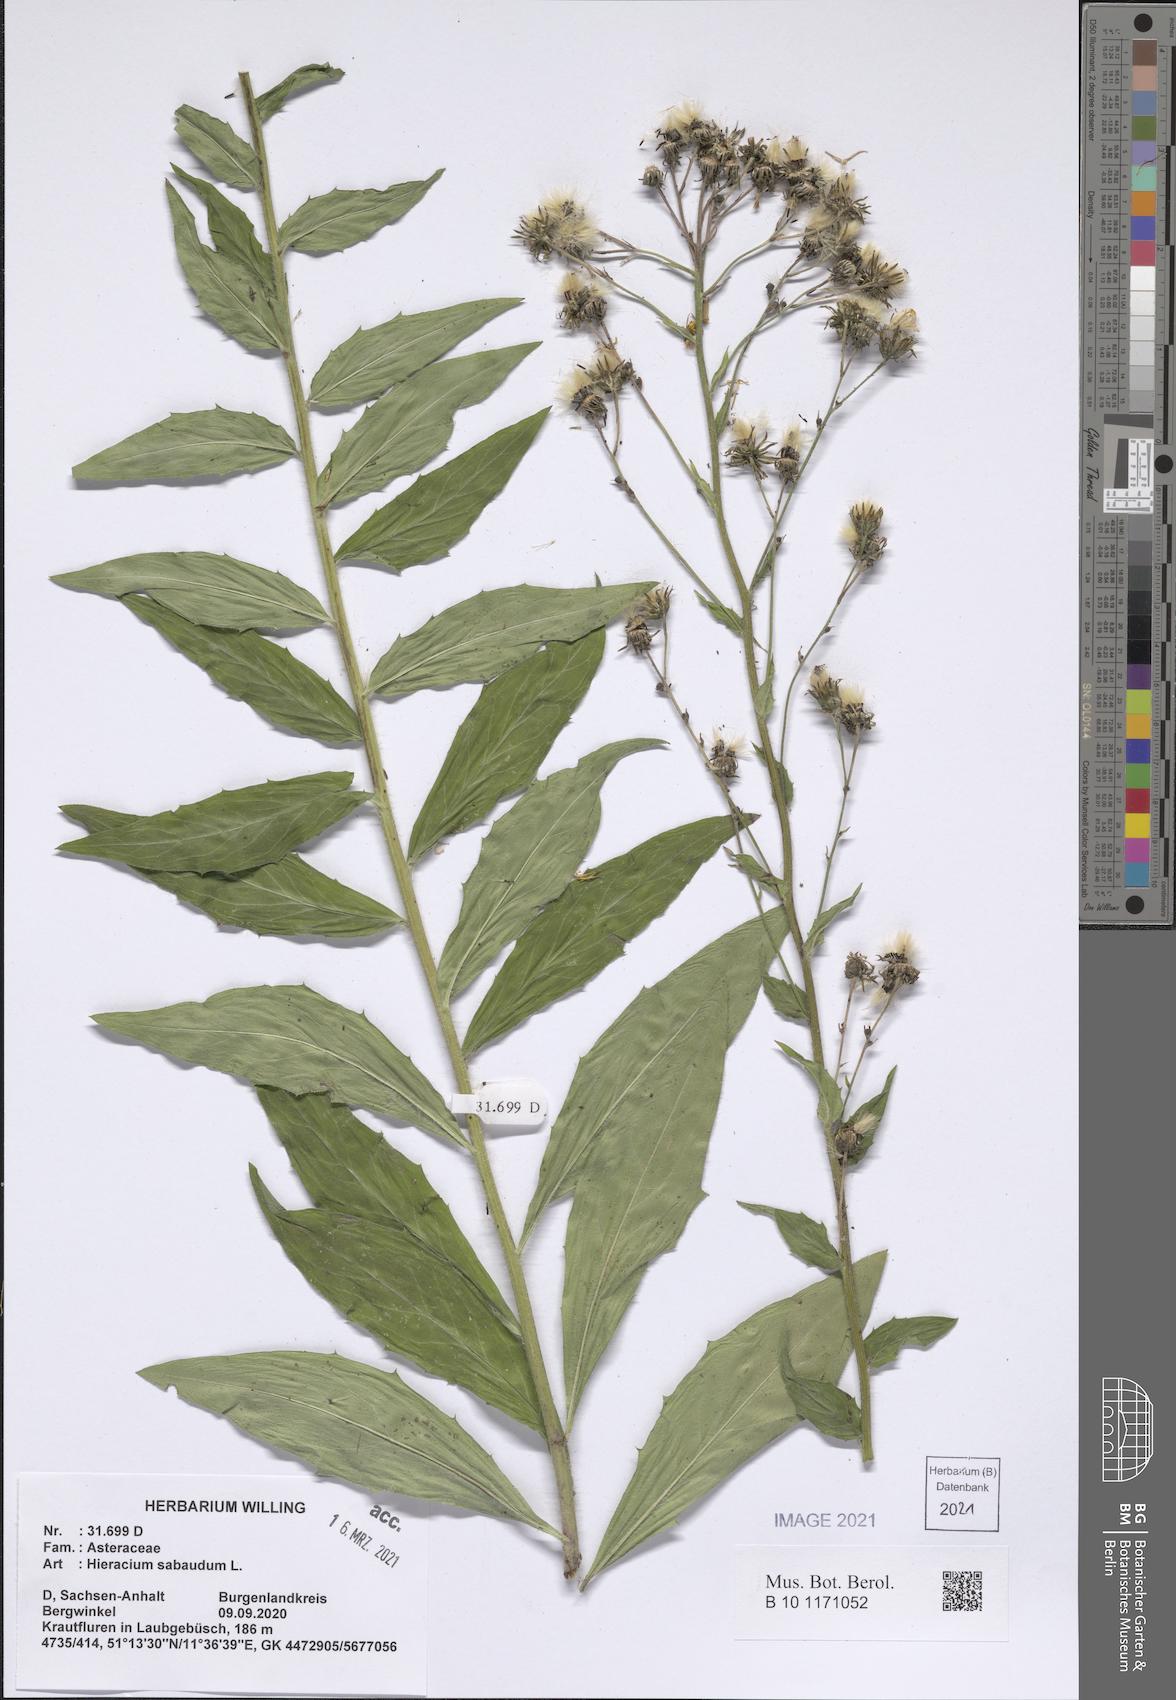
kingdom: Plantae
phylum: Tracheophyta
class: Magnoliopsida
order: Asterales
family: Asteraceae
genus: Hieracium
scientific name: Hieracium sabaudum
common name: New england hawkweed
